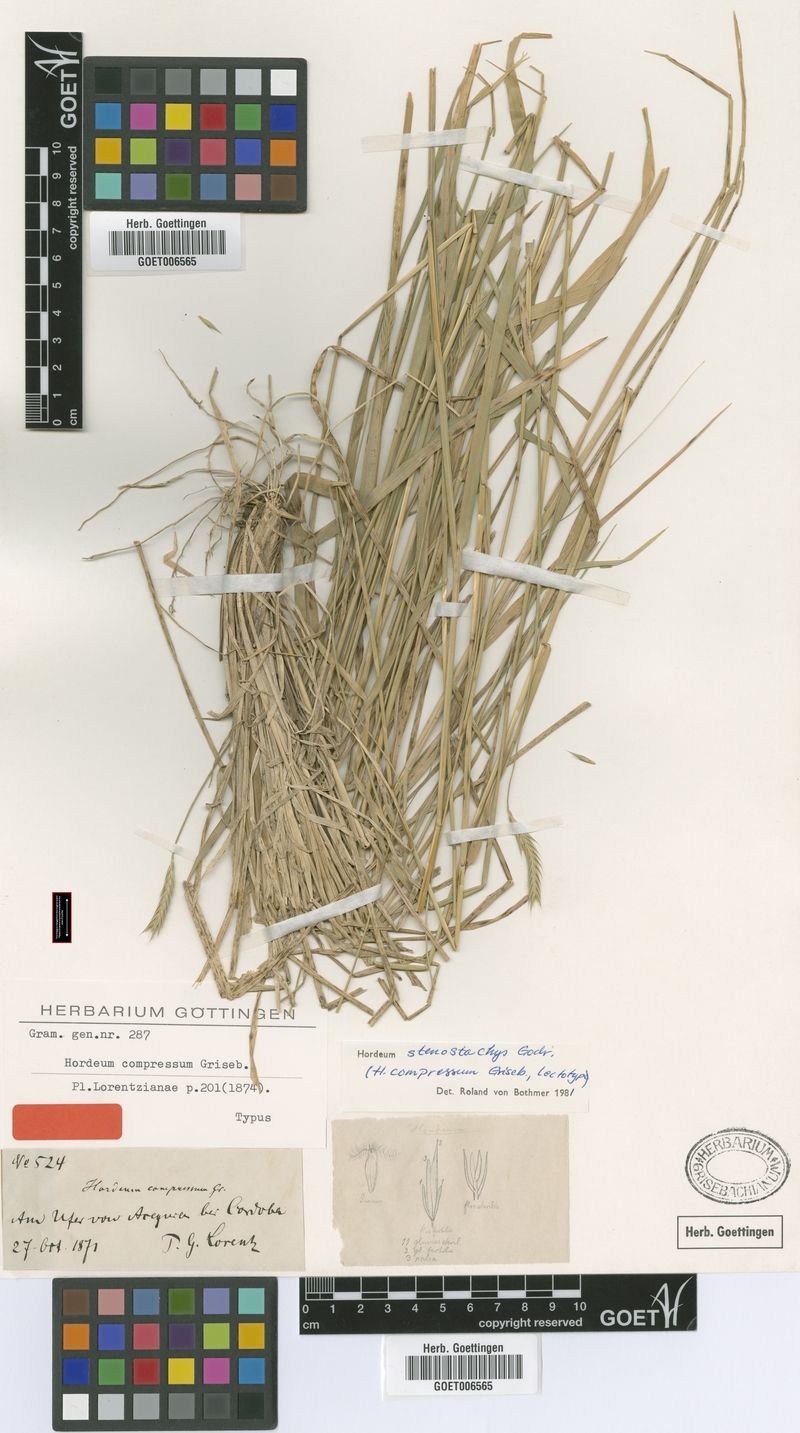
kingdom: Plantae
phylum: Tracheophyta
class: Liliopsida
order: Poales
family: Poaceae
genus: Hordeum
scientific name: Hordeum stenostachys
